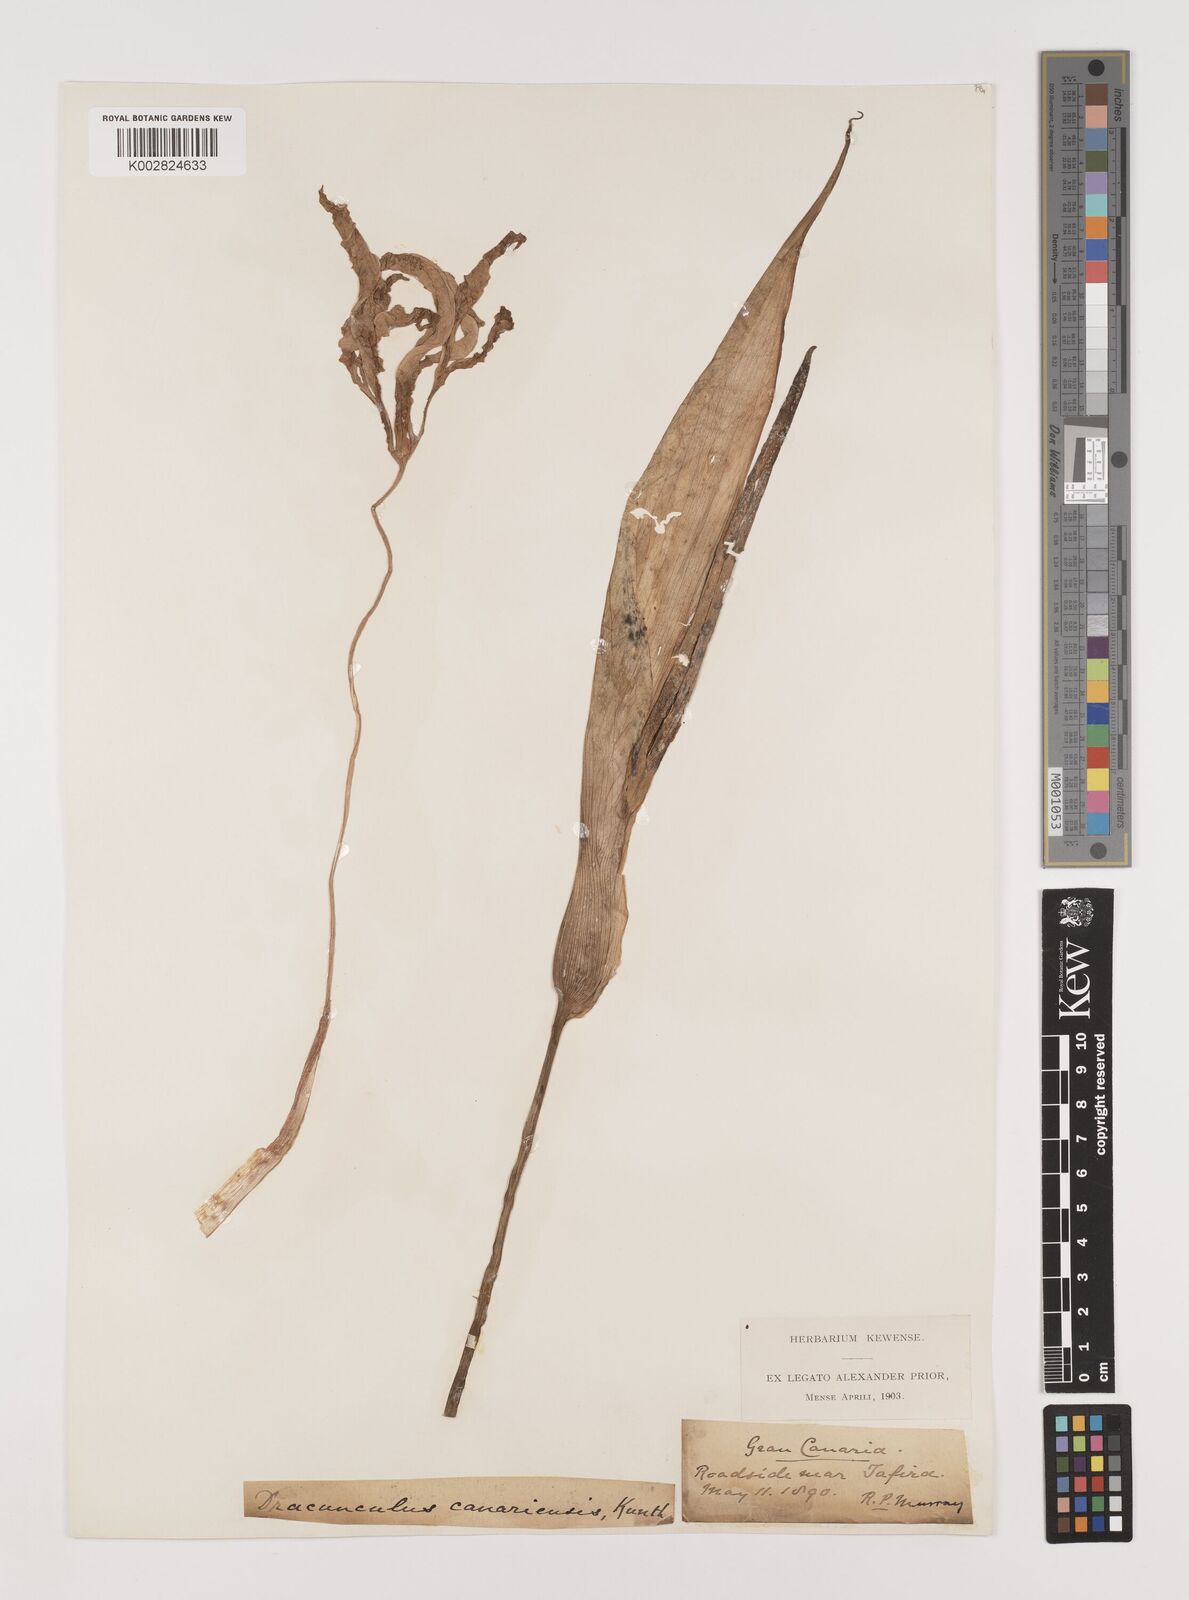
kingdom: Plantae
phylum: Tracheophyta
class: Liliopsida
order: Alismatales
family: Araceae
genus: Dracunculus
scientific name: Dracunculus
